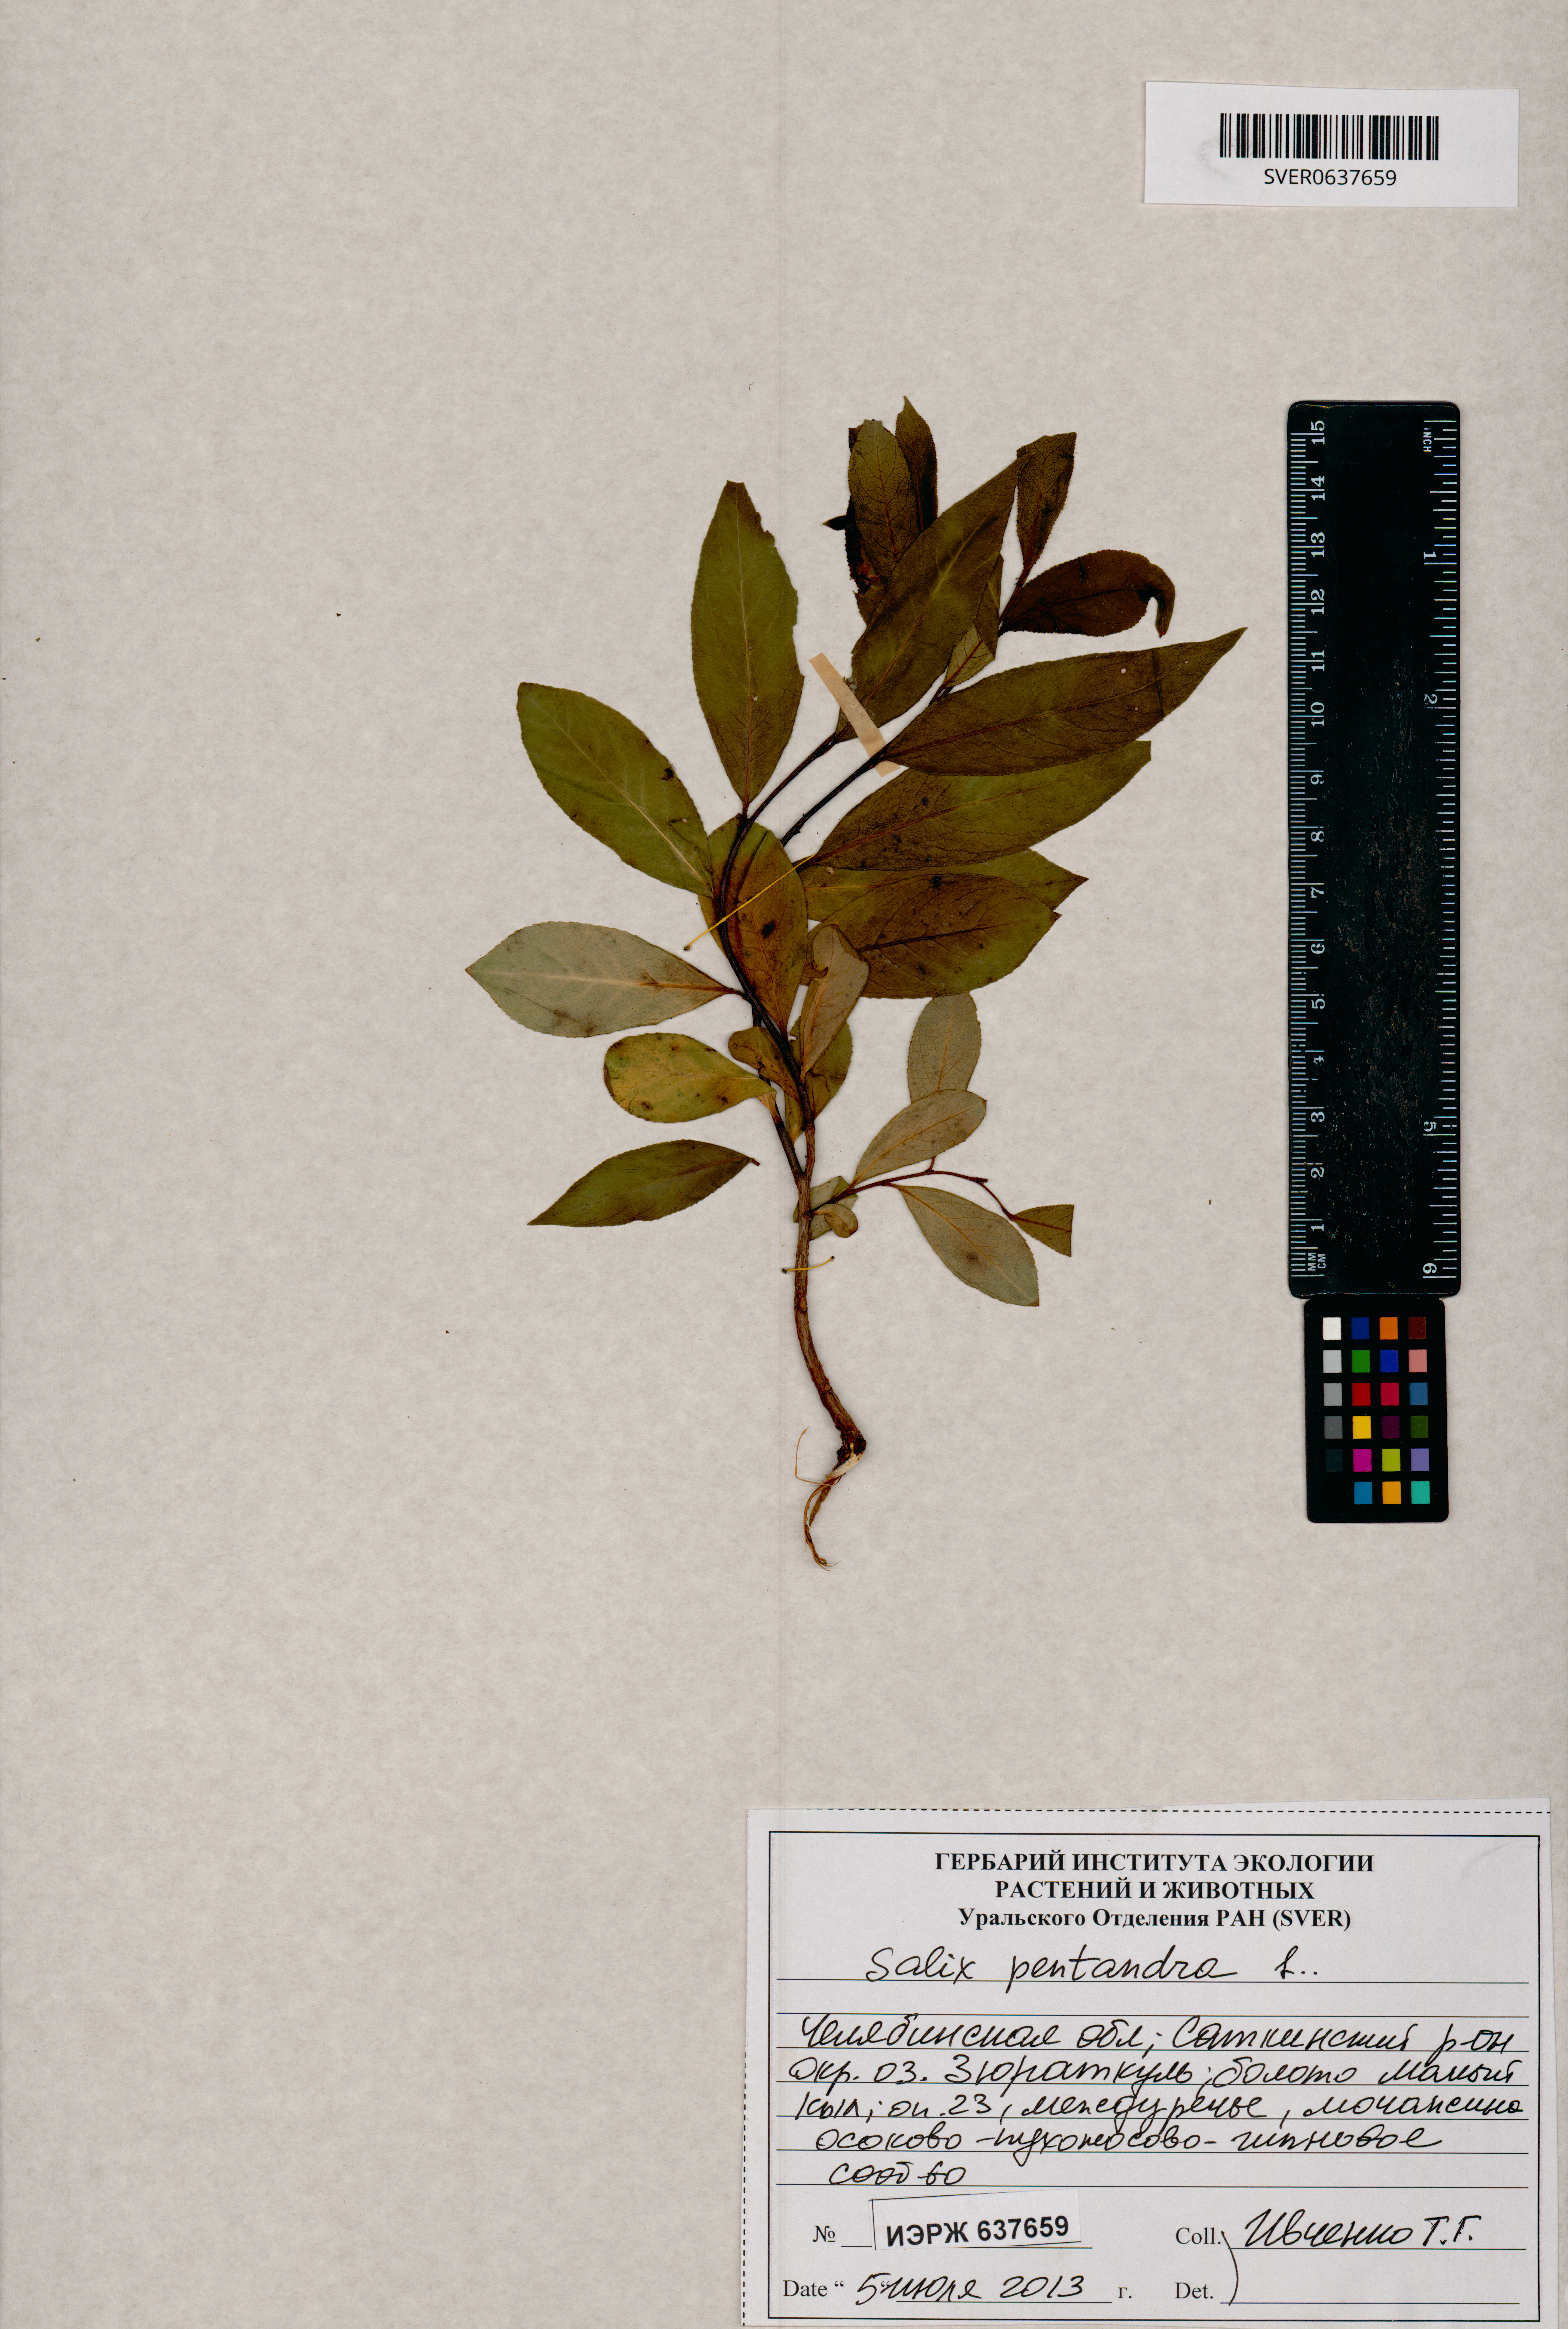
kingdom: Plantae
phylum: Tracheophyta
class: Magnoliopsida
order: Malpighiales
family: Salicaceae
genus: Salix
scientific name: Salix pentandra
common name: Bay willow
